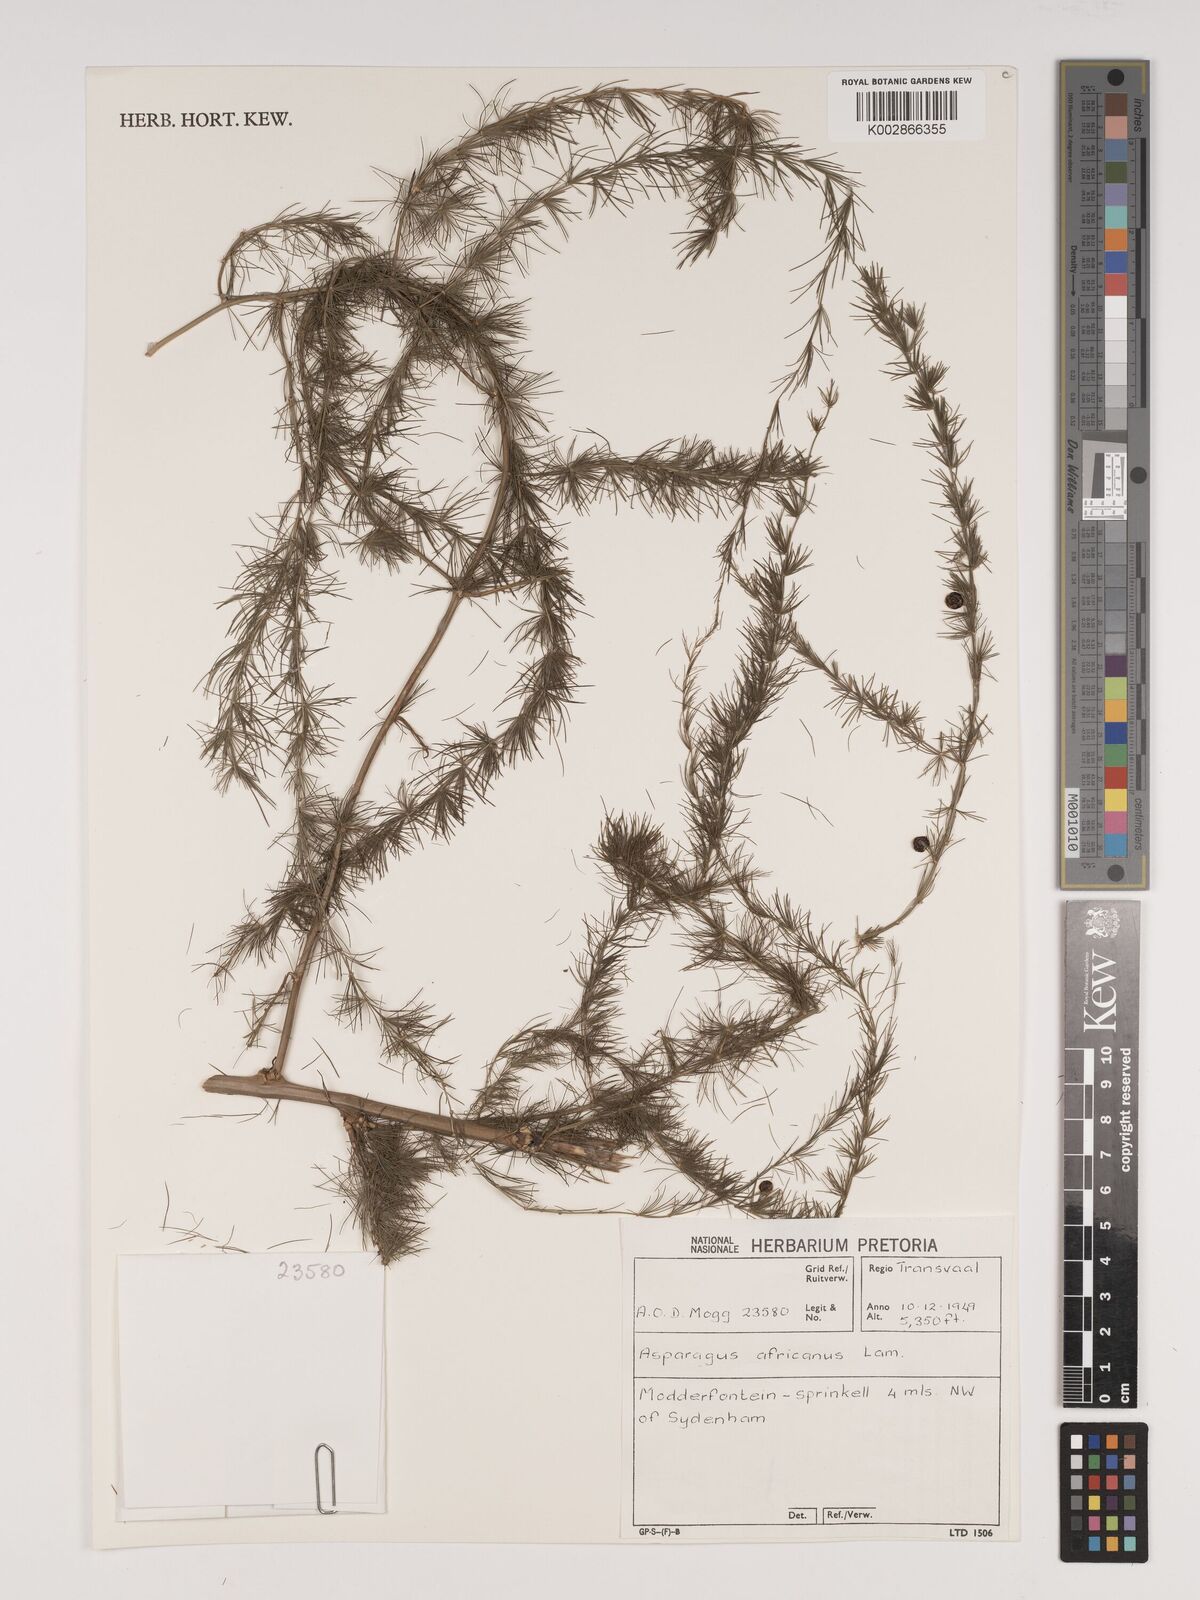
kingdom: Plantae
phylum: Tracheophyta
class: Liliopsida
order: Asparagales
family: Asparagaceae
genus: Asparagus
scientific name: Asparagus africanus
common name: Asparagus-fern
